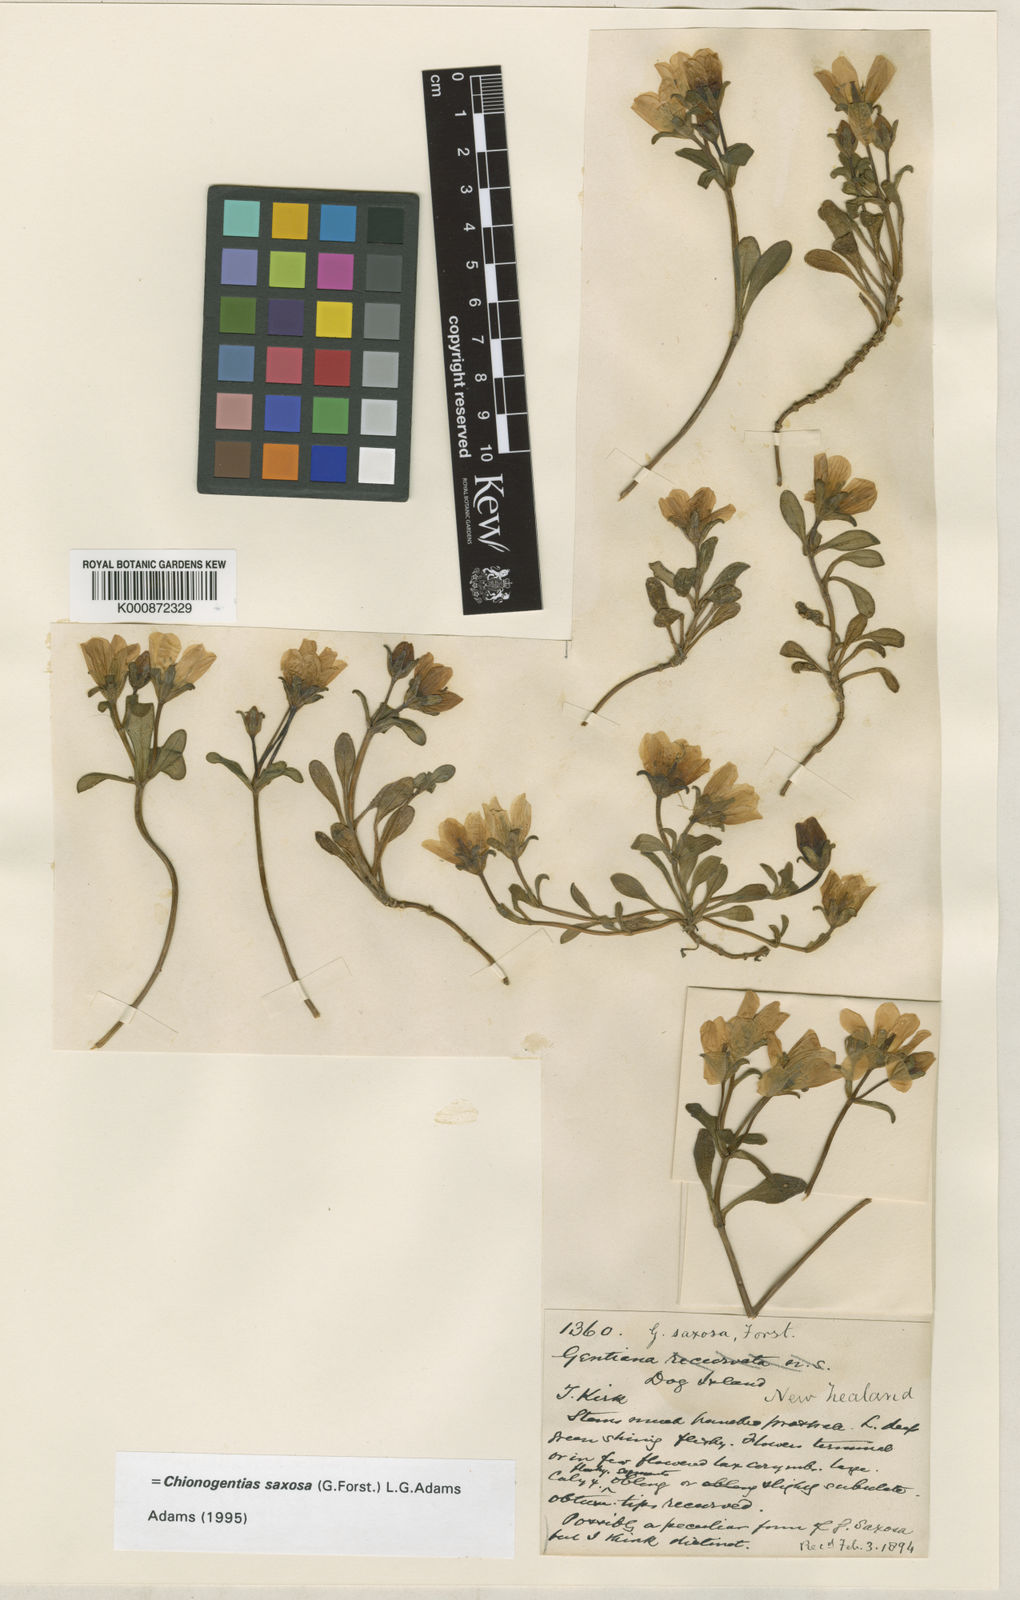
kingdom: Plantae
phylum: Tracheophyta
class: Magnoliopsida
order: Gentianales
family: Gentianaceae
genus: Gentianella
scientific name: Gentianella saxosa
